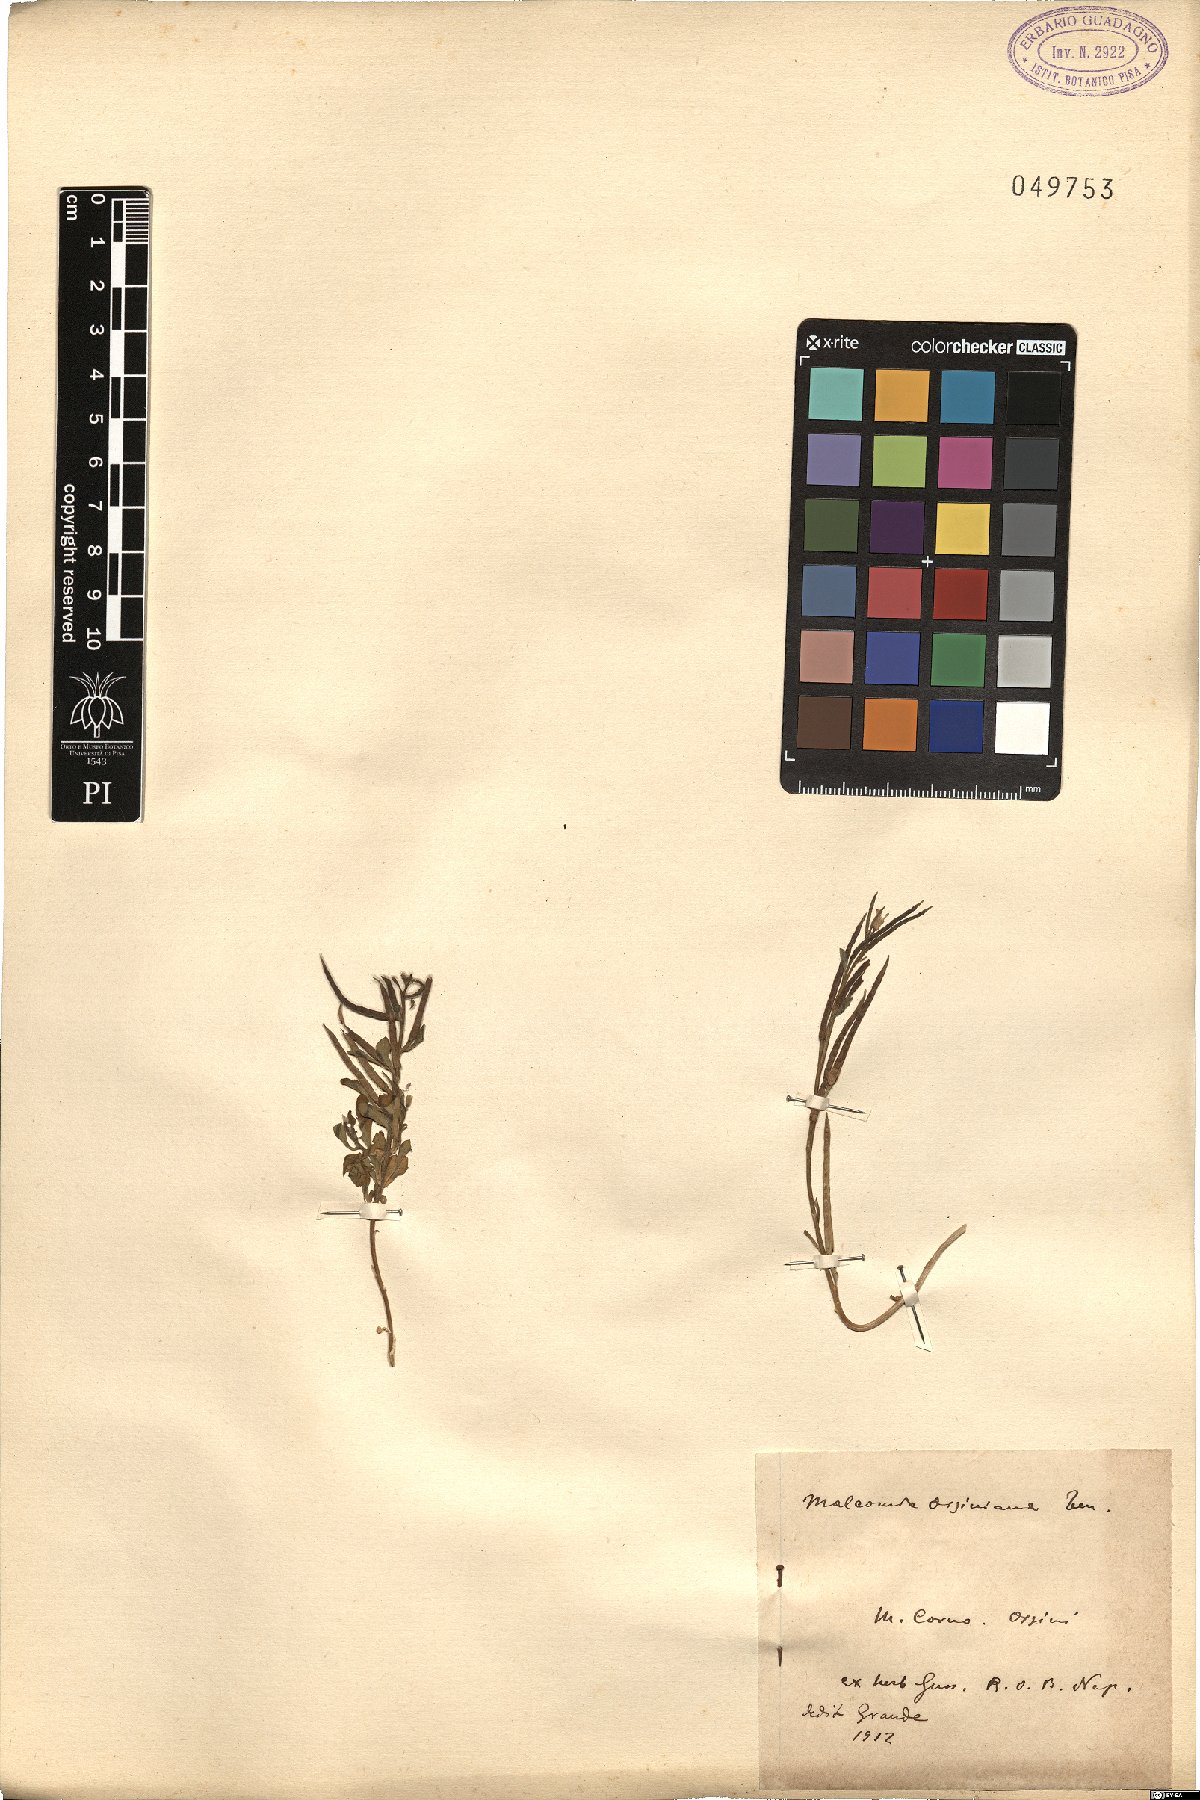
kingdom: Plantae
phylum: Tracheophyta
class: Magnoliopsida
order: Brassicales
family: Brassicaceae
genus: Malcolmia
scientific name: Malcolmia orsiniana
